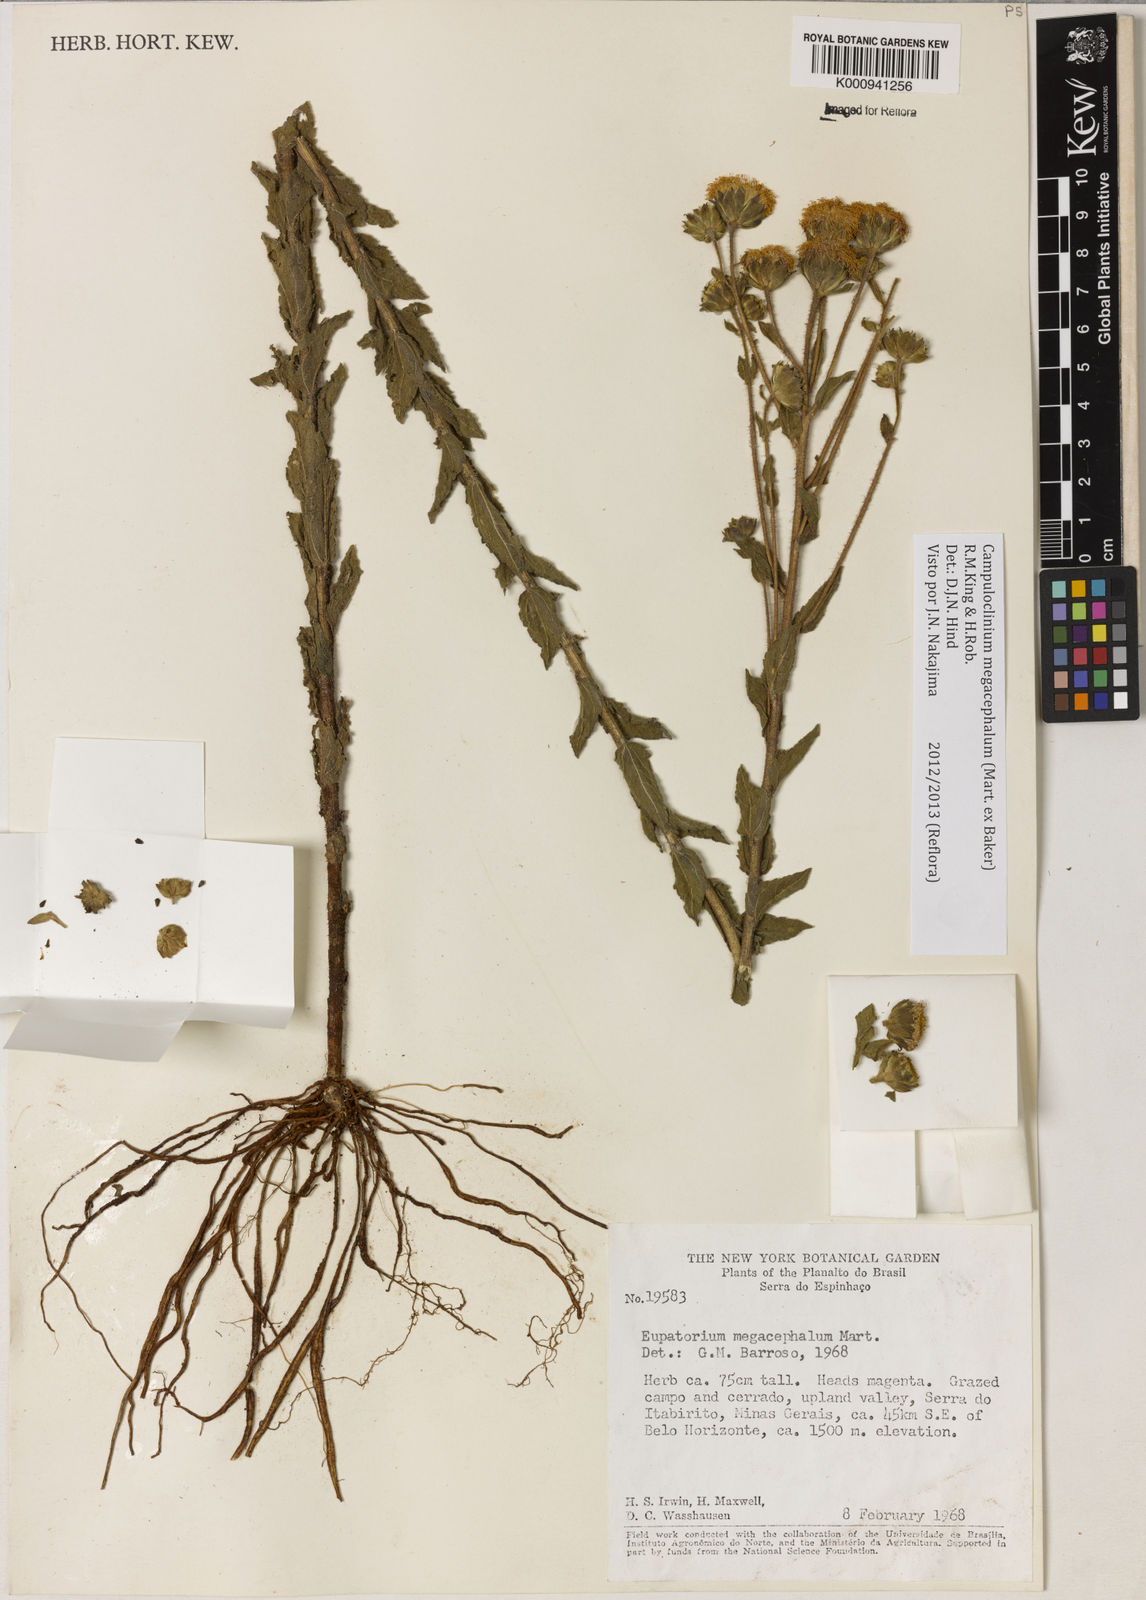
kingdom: Plantae
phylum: Tracheophyta
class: Magnoliopsida
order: Asterales
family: Asteraceae
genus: Campuloclinium
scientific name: Campuloclinium megacephalum
